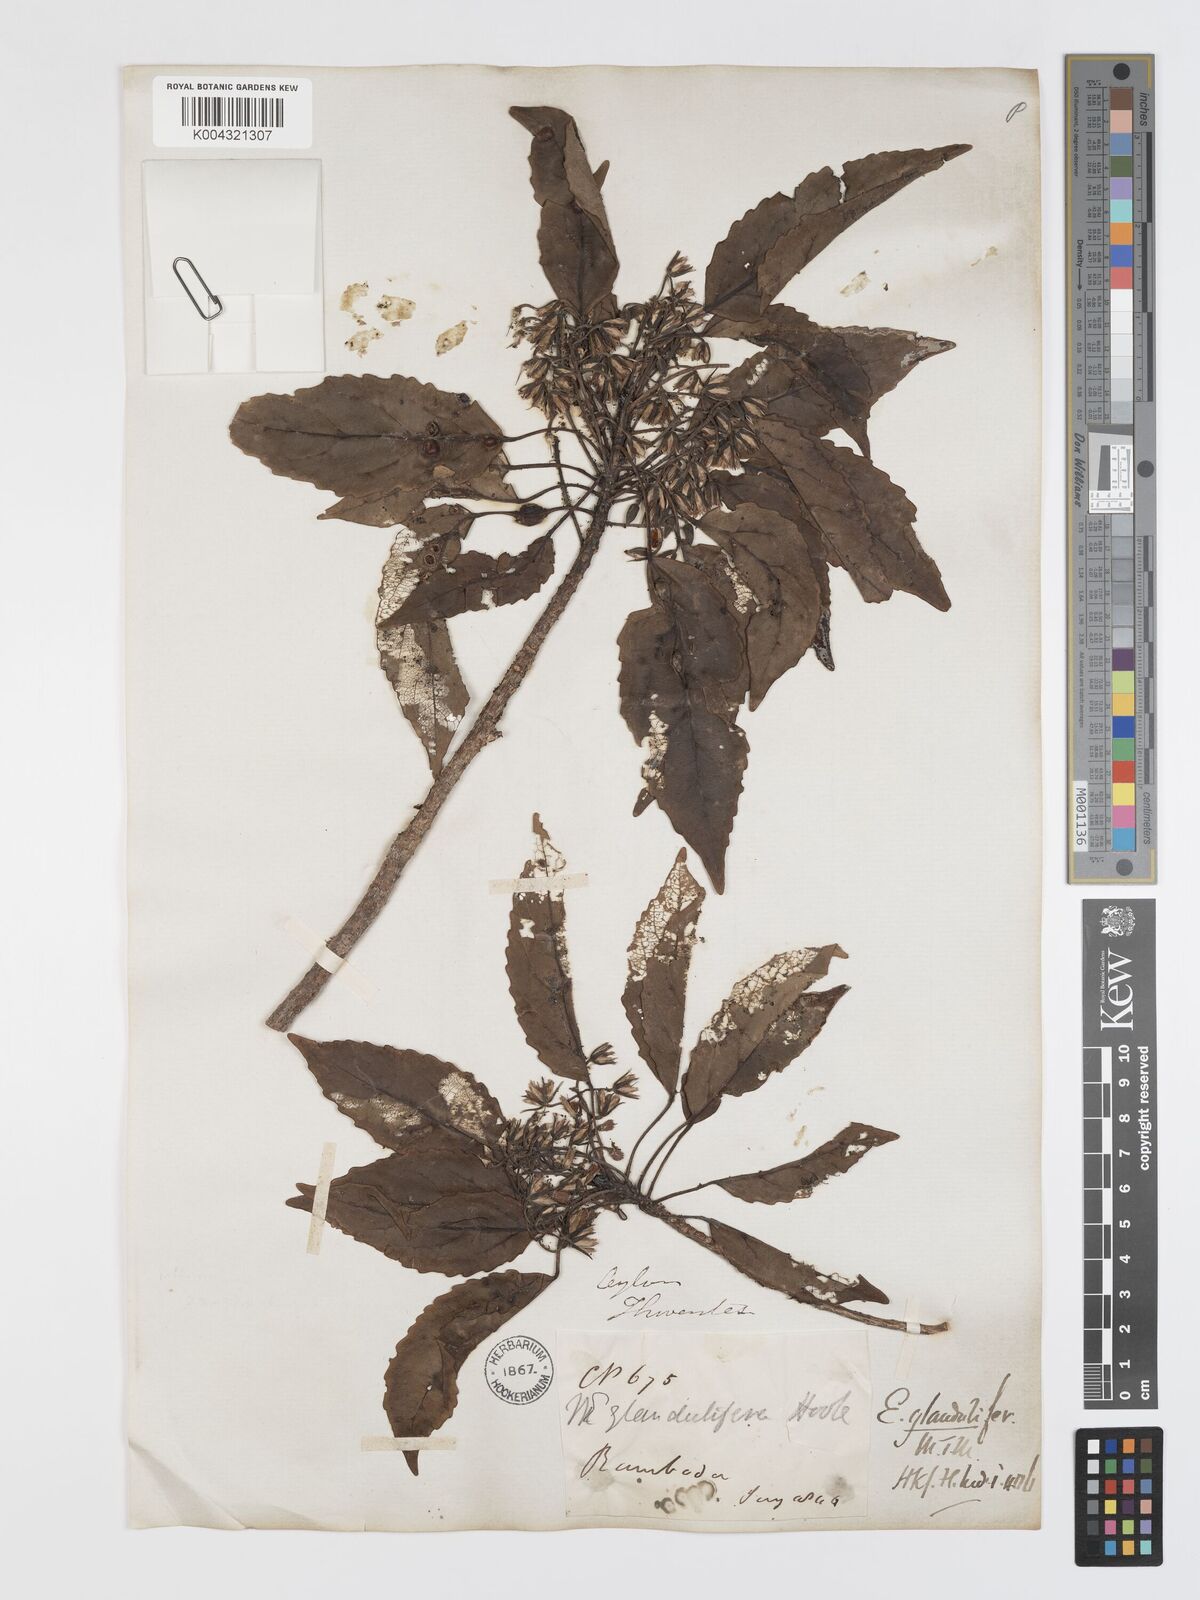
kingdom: Plantae
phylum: Tracheophyta
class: Magnoliopsida
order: Oxalidales
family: Elaeocarpaceae
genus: Elaeocarpus
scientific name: Elaeocarpus glandulifer
